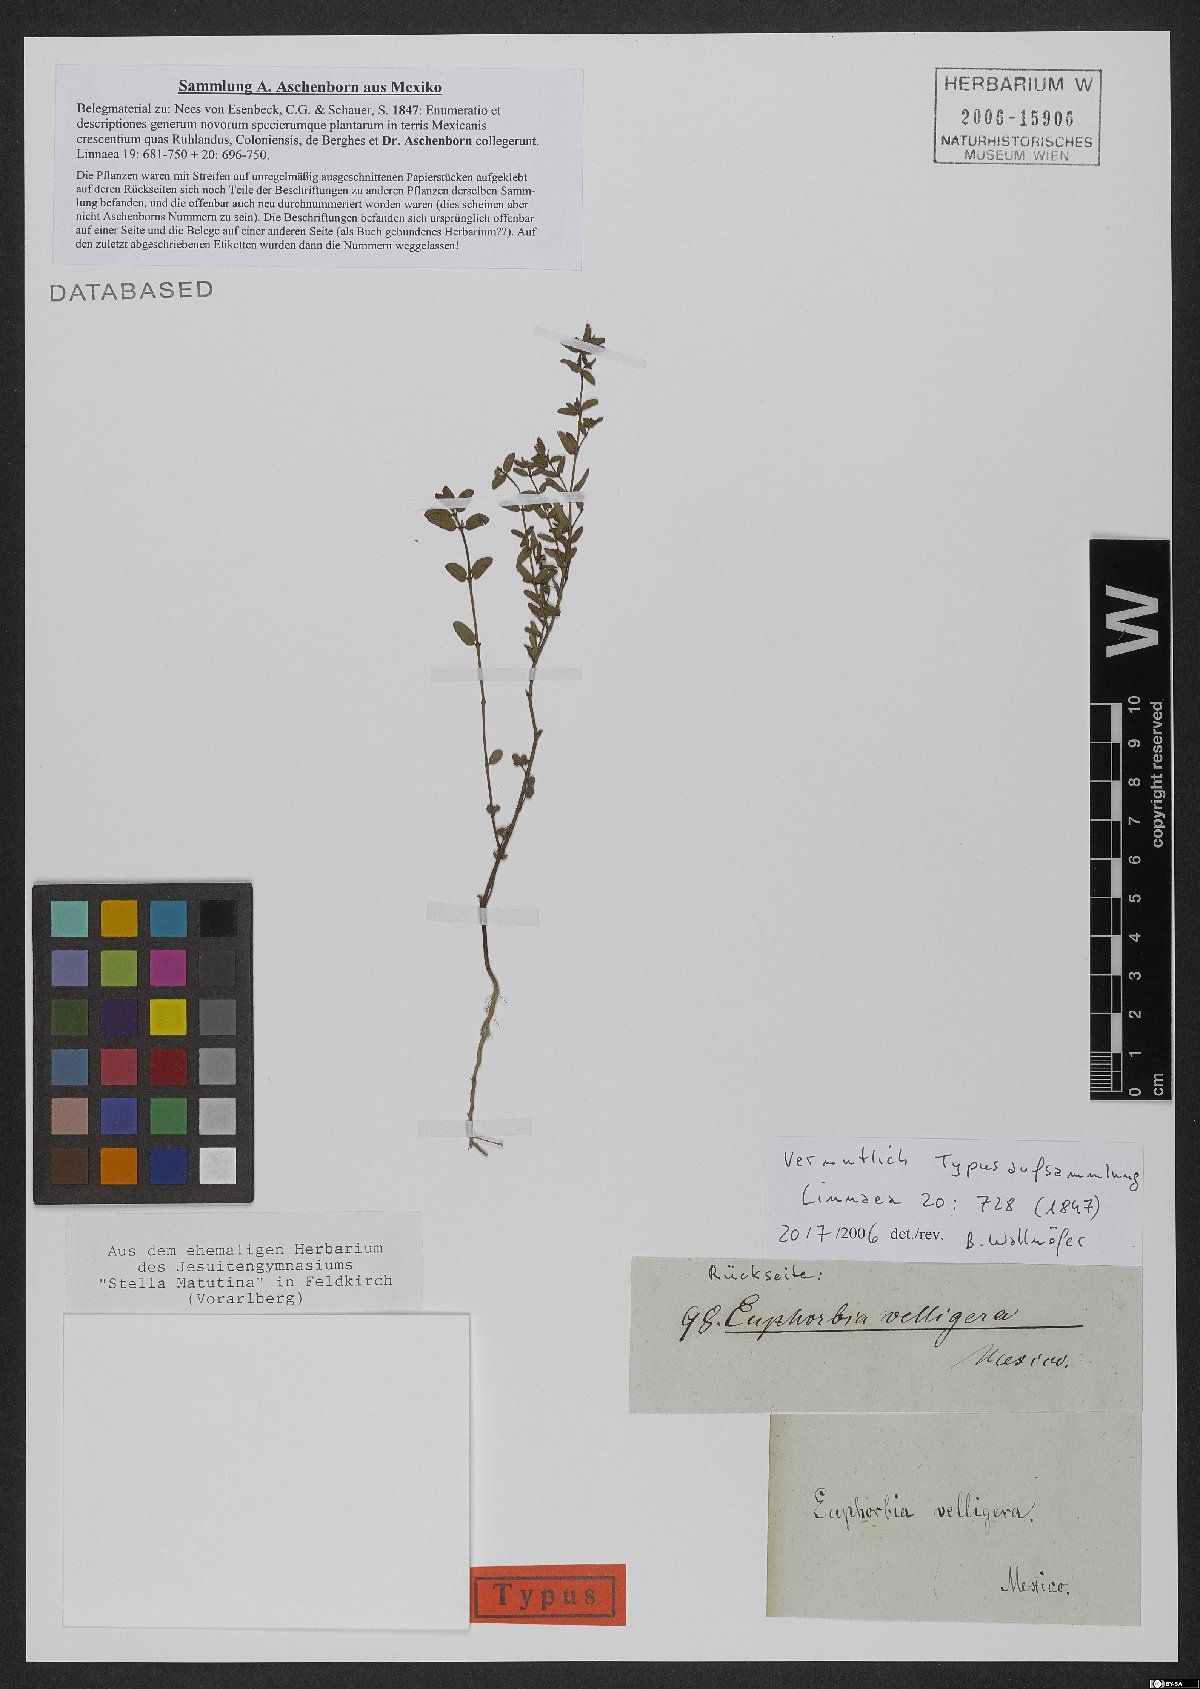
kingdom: Plantae
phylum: Tracheophyta
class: Magnoliopsida
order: Malpighiales
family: Euphorbiaceae
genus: Euphorbia
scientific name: Euphorbia velligera
